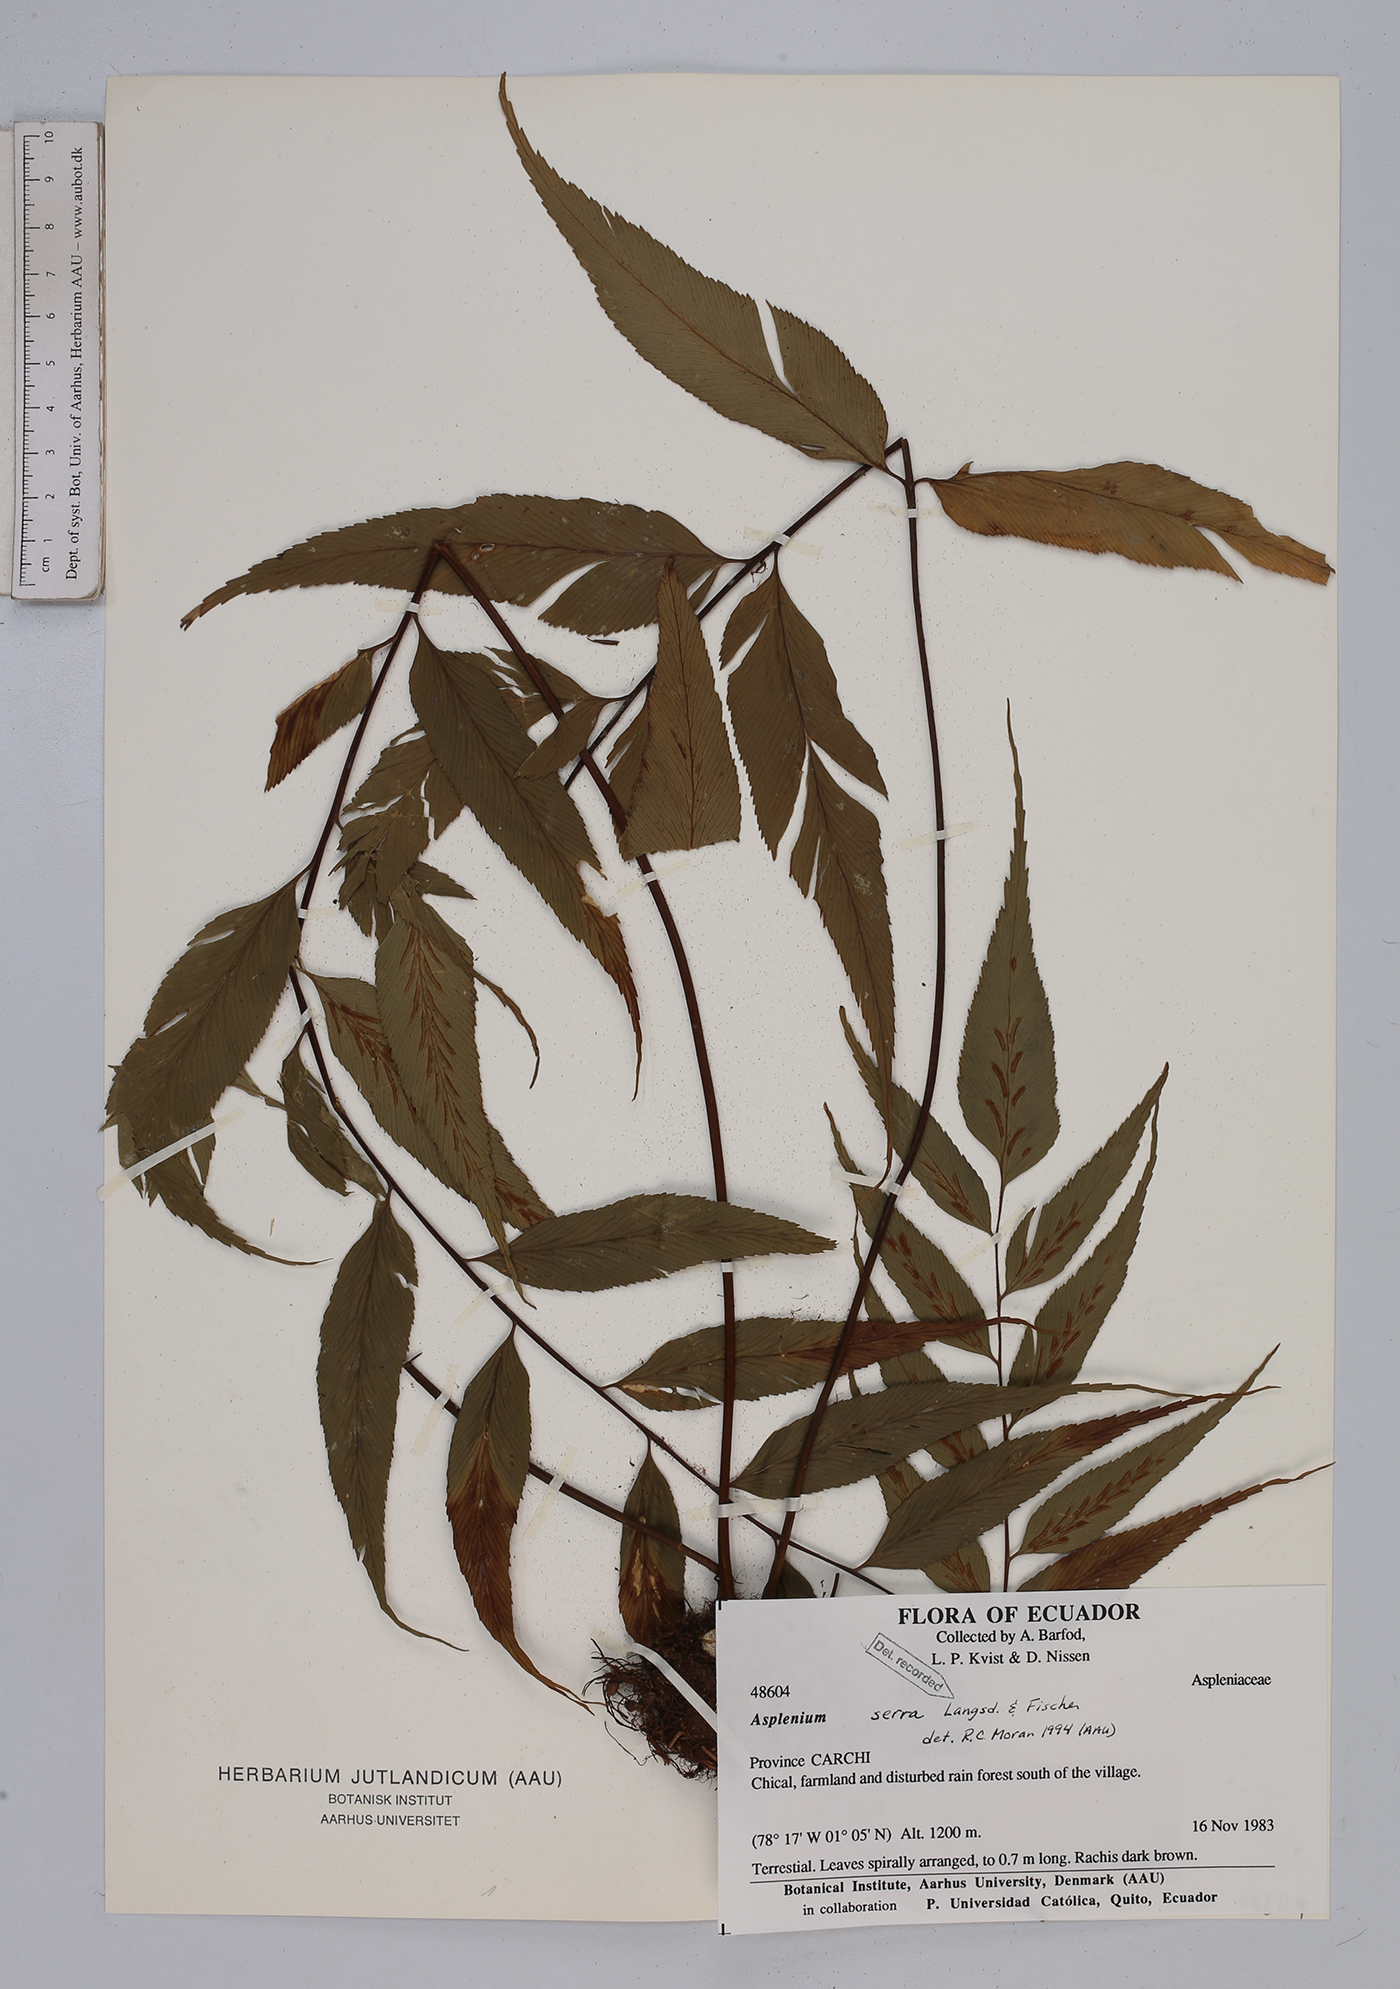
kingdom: Plantae
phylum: Tracheophyta
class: Polypodiopsida
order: Polypodiales
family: Aspleniaceae
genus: Asplenium
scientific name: Asplenium serra
